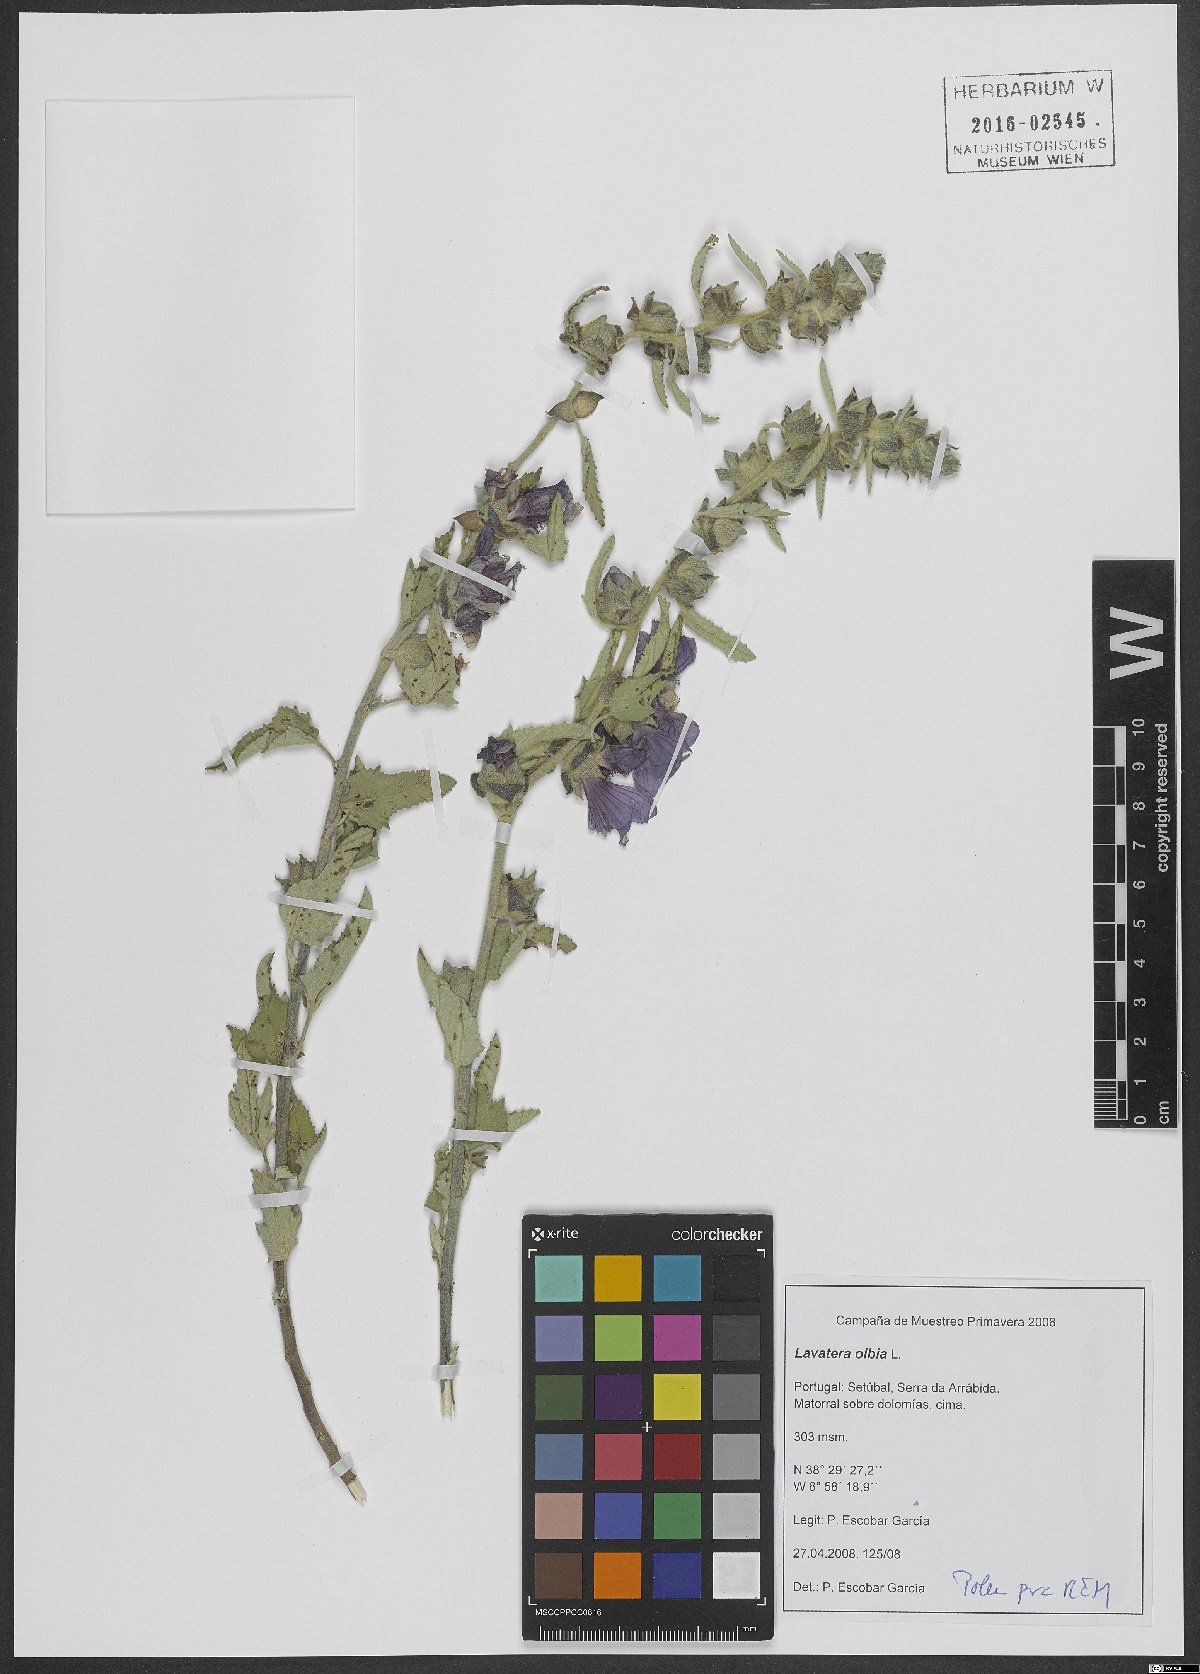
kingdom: Plantae
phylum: Tracheophyta
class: Magnoliopsida
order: Malvales
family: Malvaceae
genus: Malva
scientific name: Malva olbia
